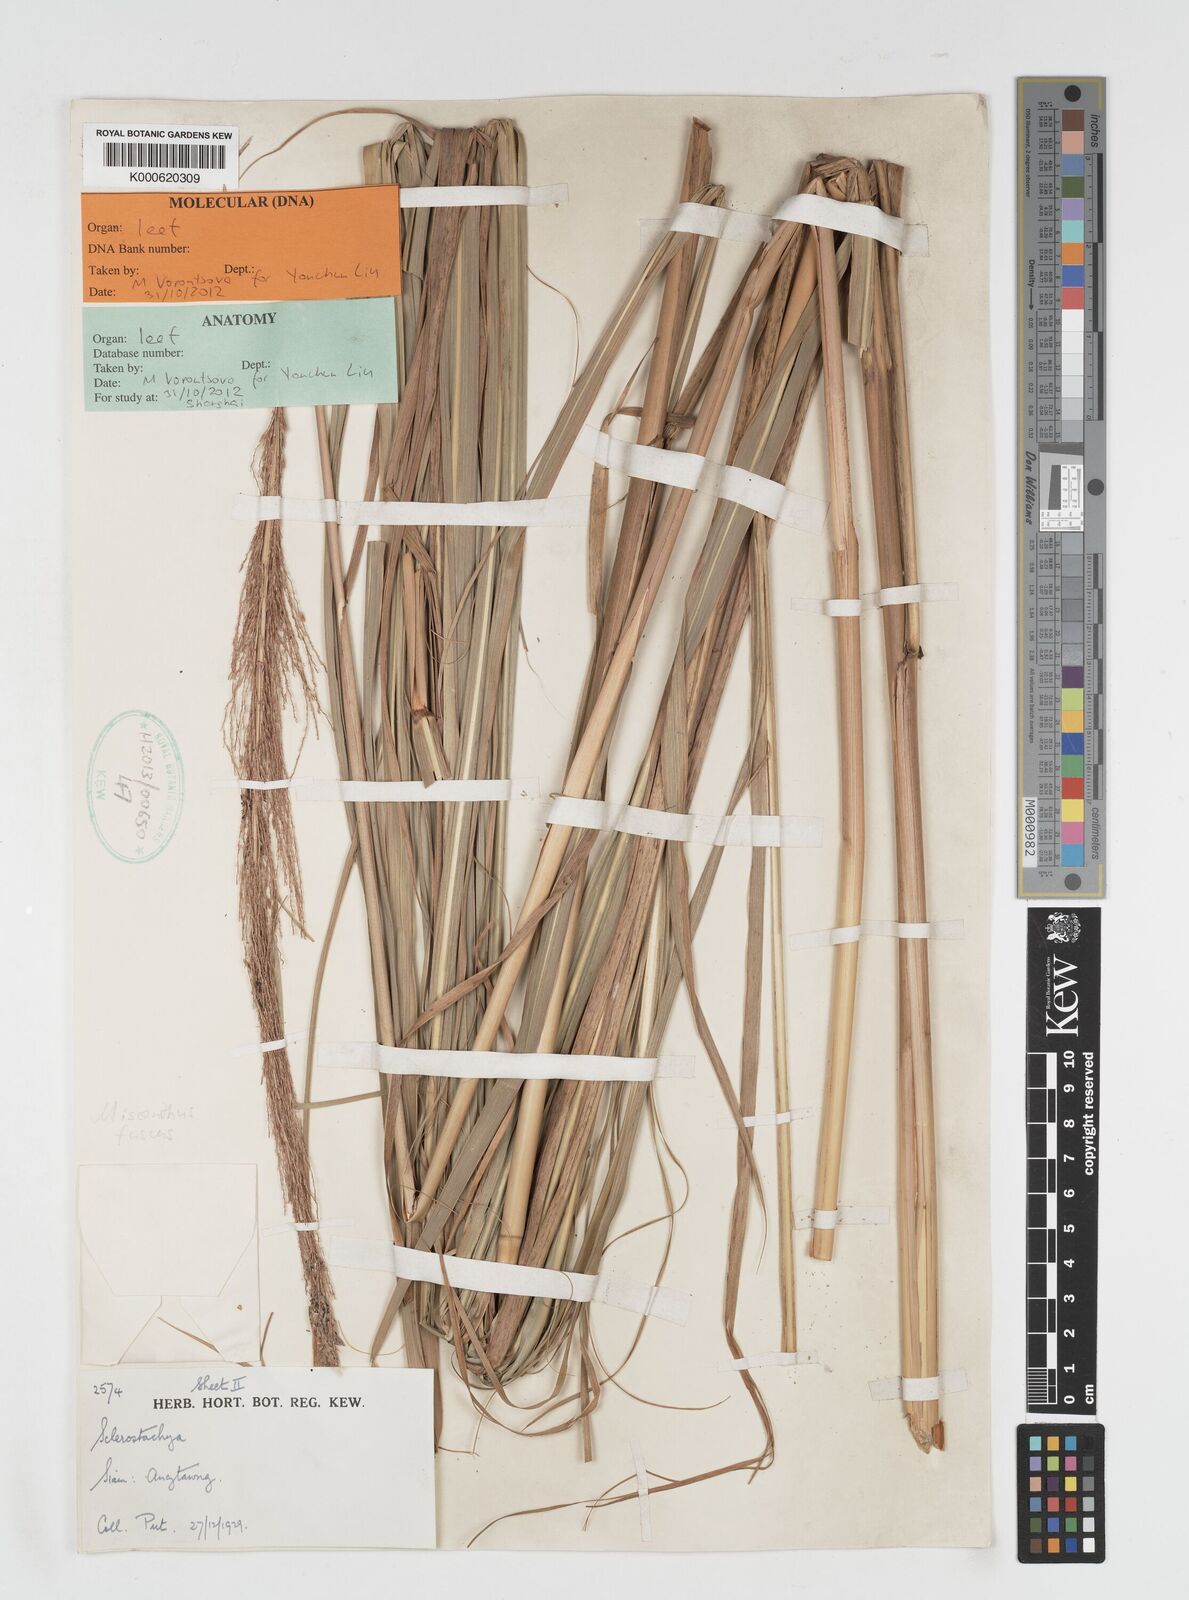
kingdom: Plantae
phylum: Tracheophyta
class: Liliopsida
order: Poales
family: Poaceae
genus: Miscanthus
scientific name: Miscanthus fuscus
